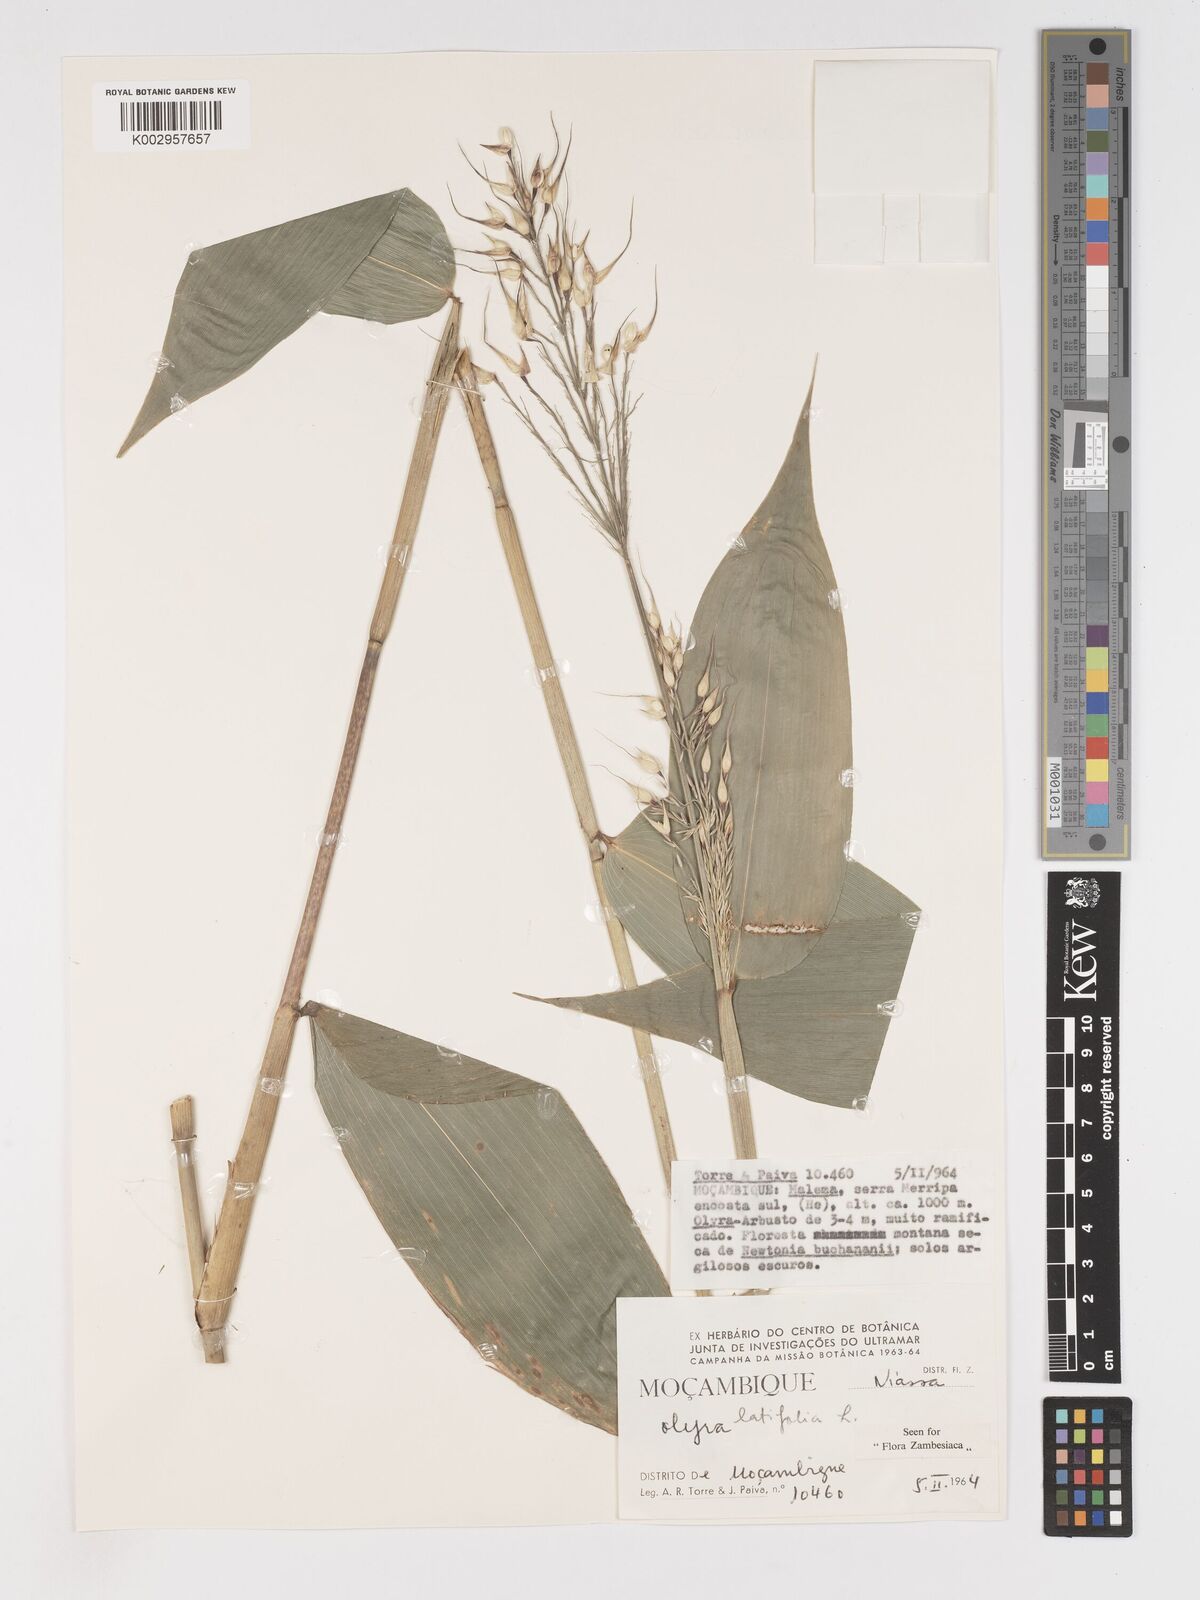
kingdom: Plantae
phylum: Tracheophyta
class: Liliopsida
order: Poales
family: Poaceae
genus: Olyra
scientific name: Olyra latifolia
